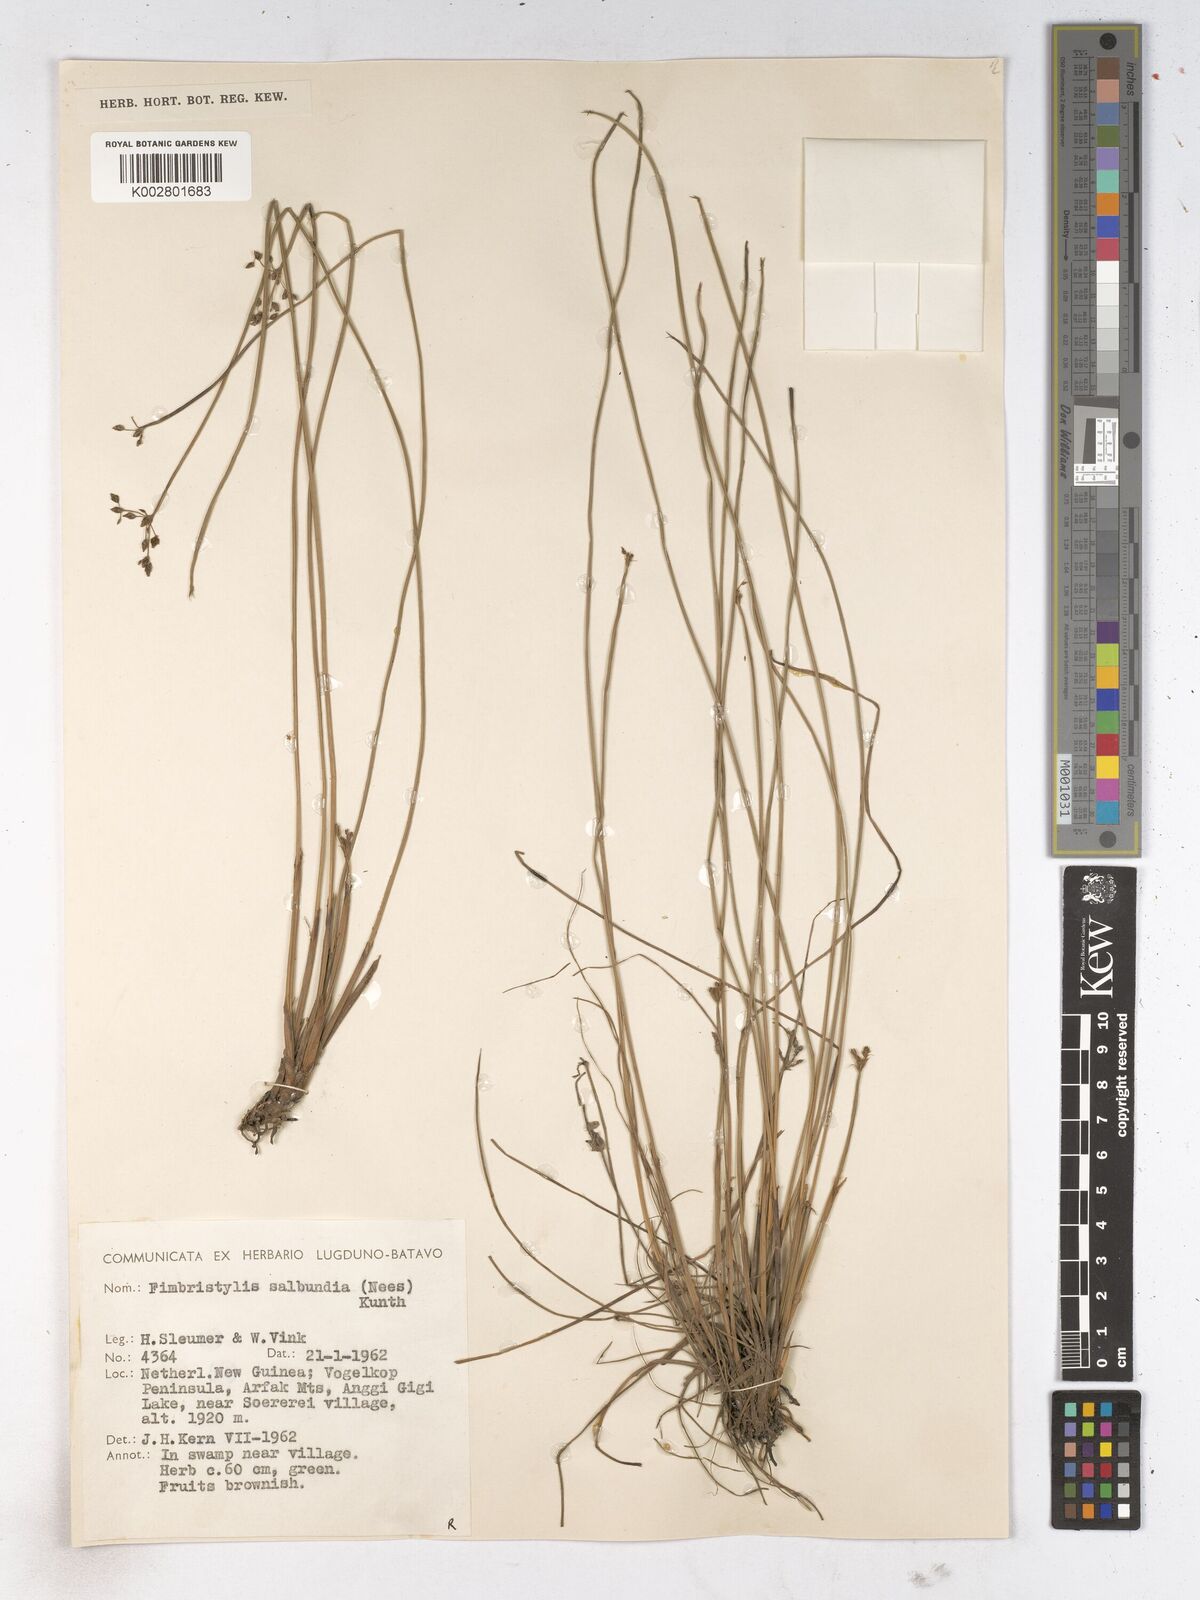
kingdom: Plantae
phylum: Tracheophyta
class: Liliopsida
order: Poales
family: Cyperaceae
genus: Fimbristylis
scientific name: Fimbristylis salbundia
